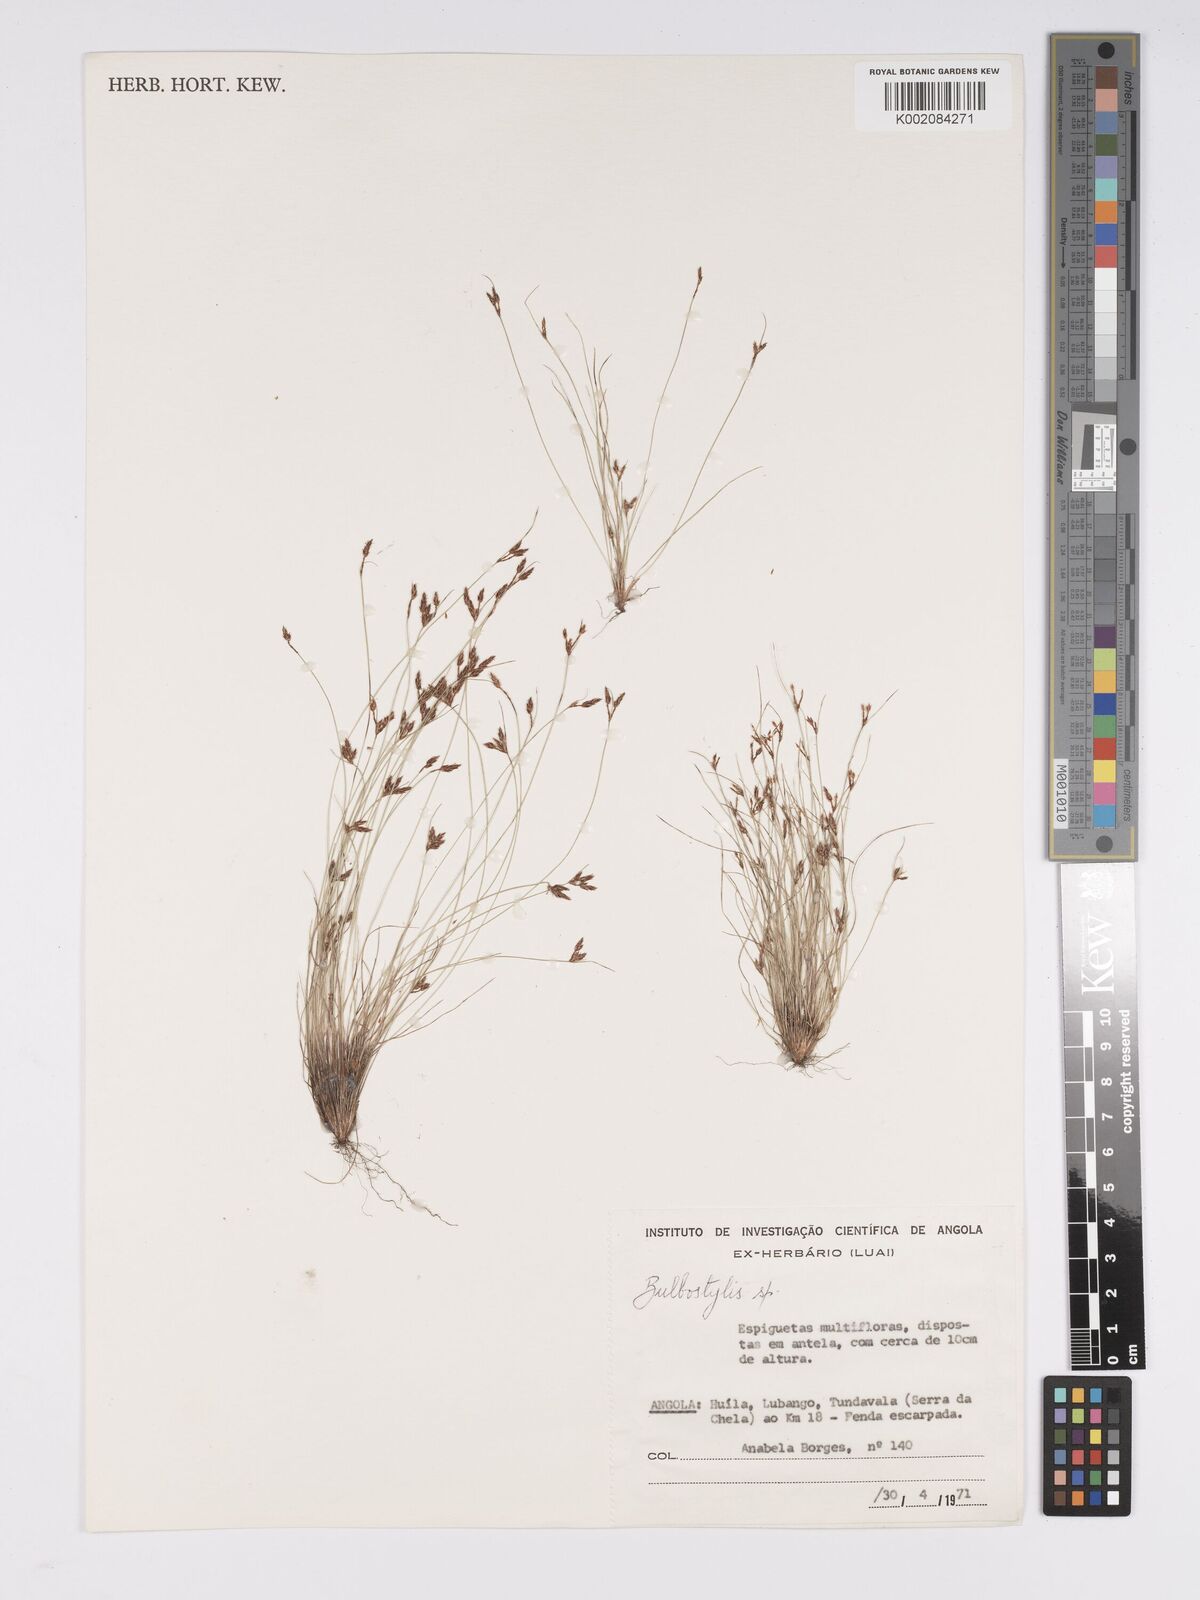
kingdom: Plantae
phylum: Tracheophyta
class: Liliopsida
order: Poales
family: Cyperaceae
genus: Bulbostylis
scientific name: Bulbostylis
